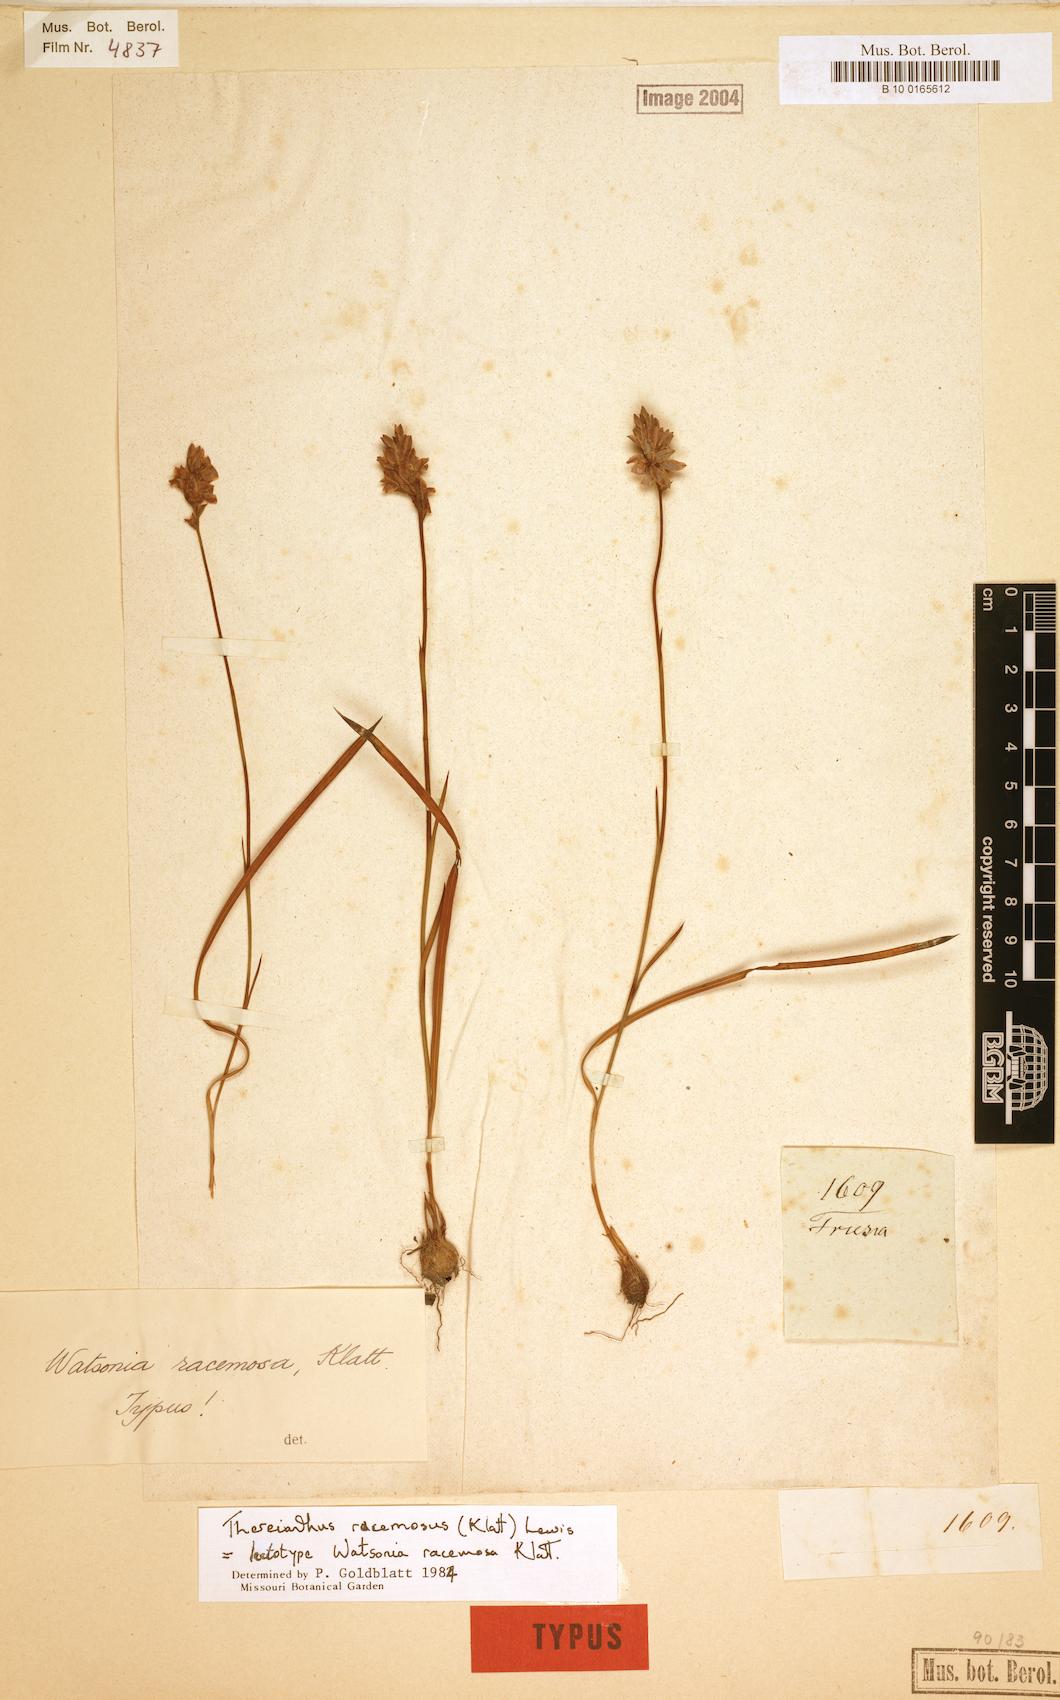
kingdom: Plantae
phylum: Tracheophyta
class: Liliopsida
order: Asparagales
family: Iridaceae
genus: Thereianthus
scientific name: Thereianthus racemosus
